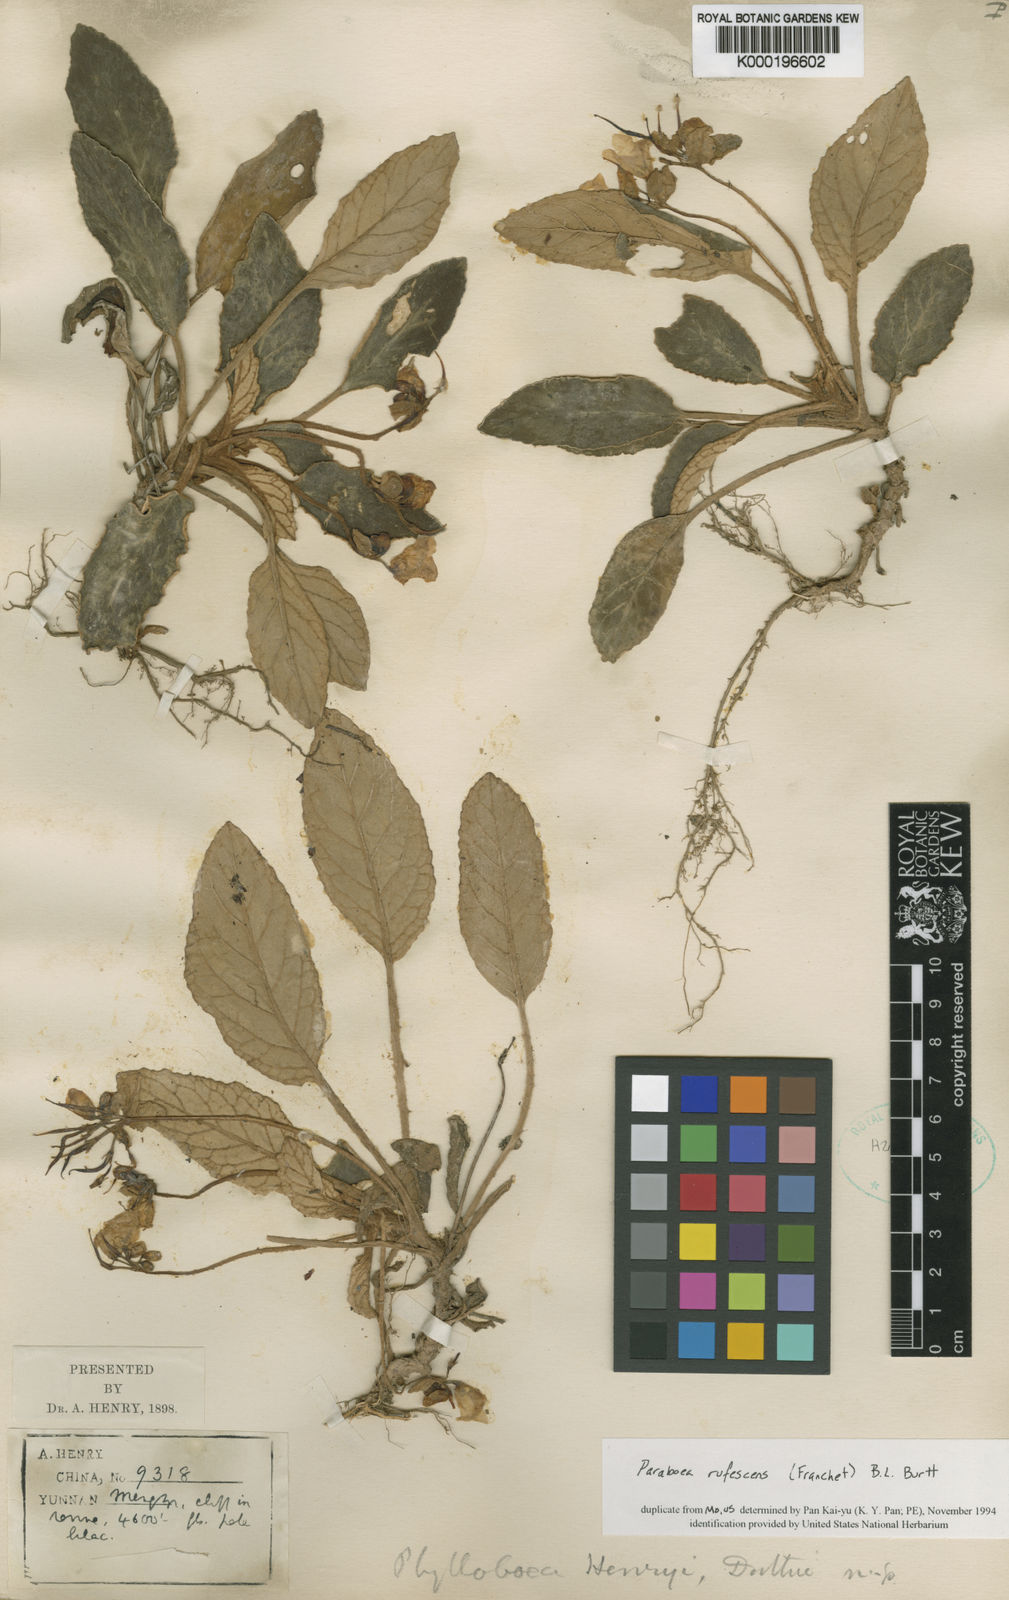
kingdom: Plantae
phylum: Tracheophyta
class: Magnoliopsida
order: Lamiales
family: Gesneriaceae
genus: Paraboea
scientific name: Paraboea rufescens
